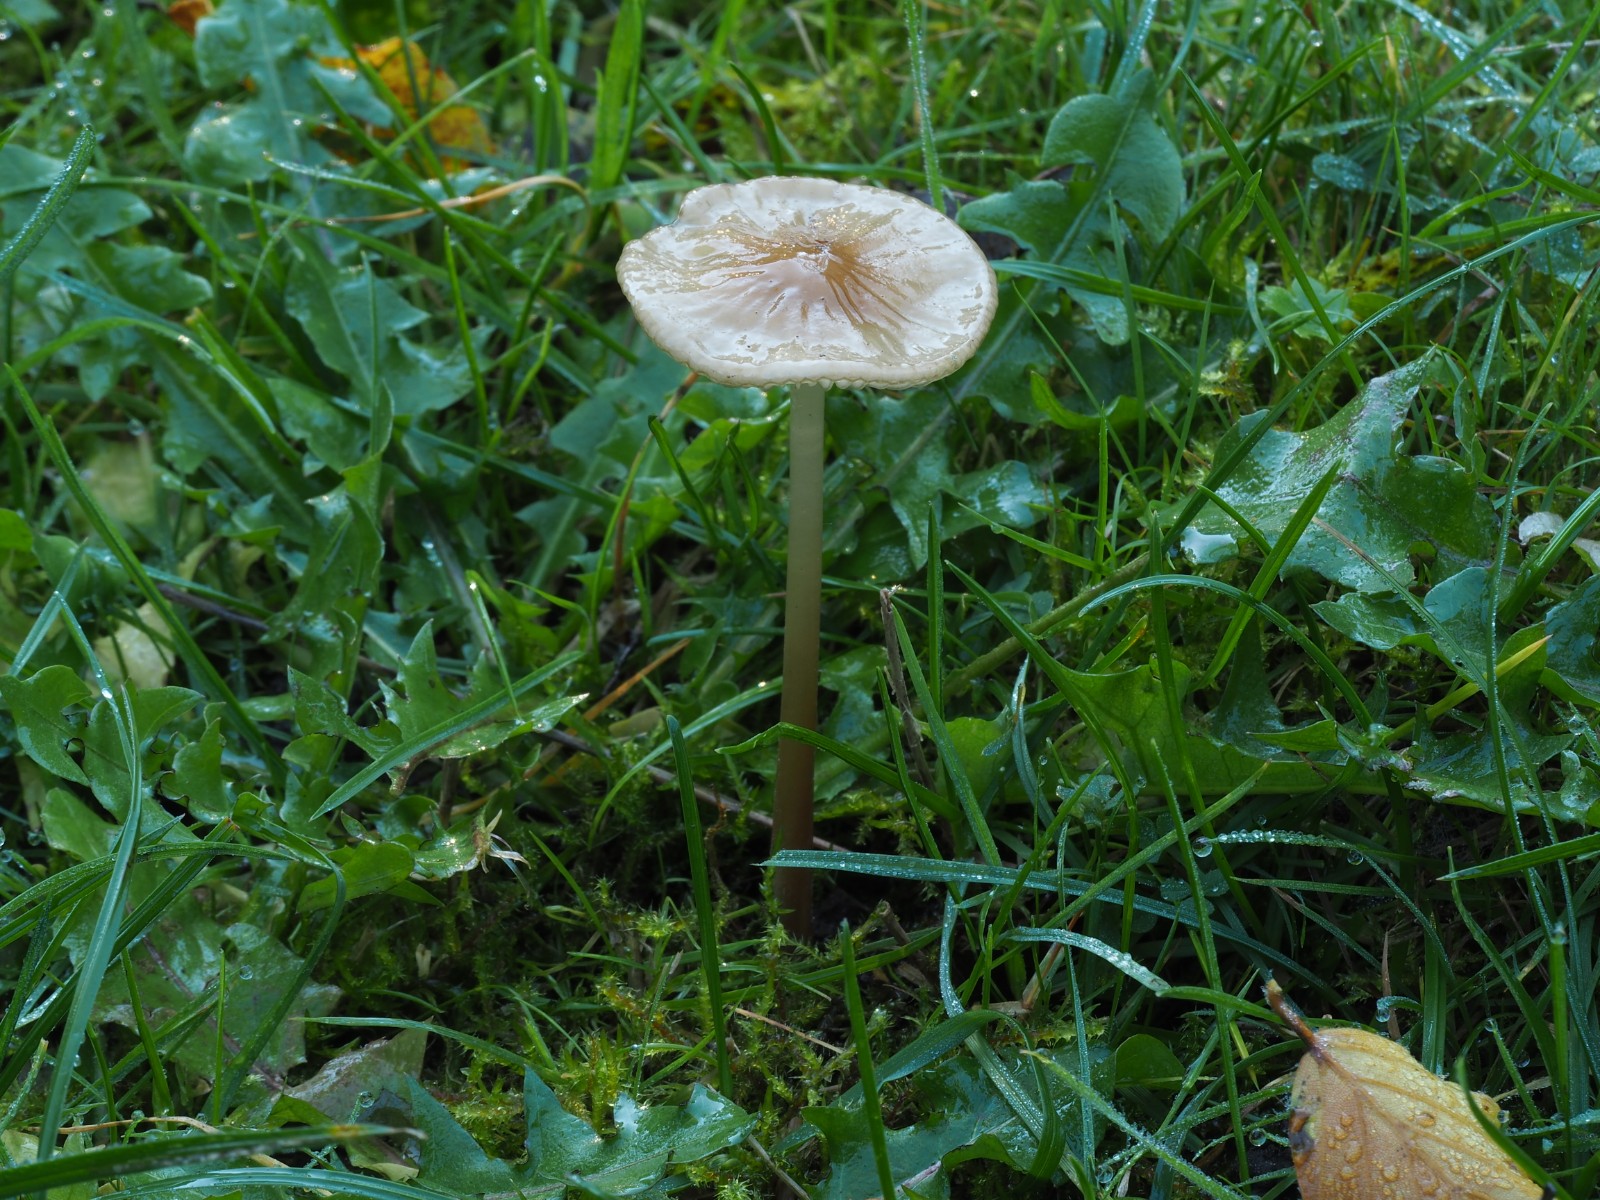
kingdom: Fungi
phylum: Basidiomycota
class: Agaricomycetes
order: Agaricales
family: Physalacriaceae
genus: Hymenopellis
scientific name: Hymenopellis radicata
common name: almindelig pælerodshat
